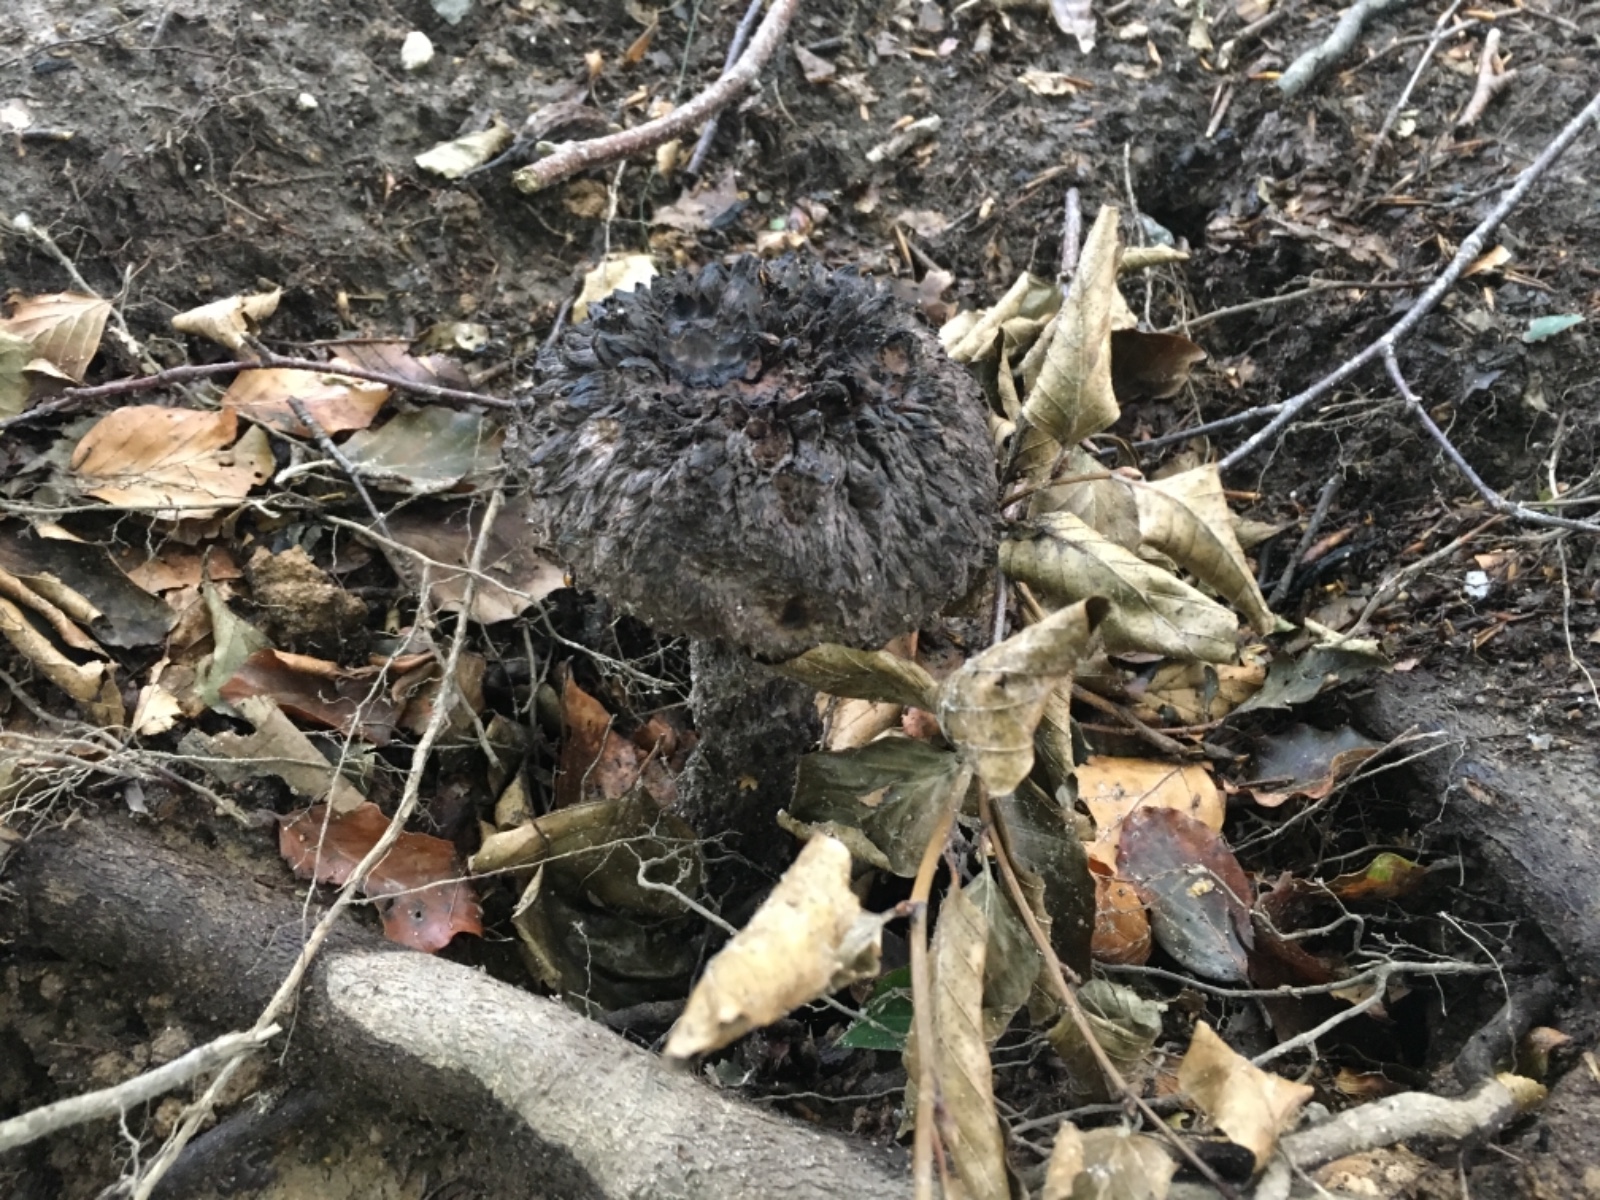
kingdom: Fungi
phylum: Basidiomycota
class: Agaricomycetes
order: Boletales
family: Boletaceae
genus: Strobilomyces
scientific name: Strobilomyces strobilaceus
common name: koglerørhat
